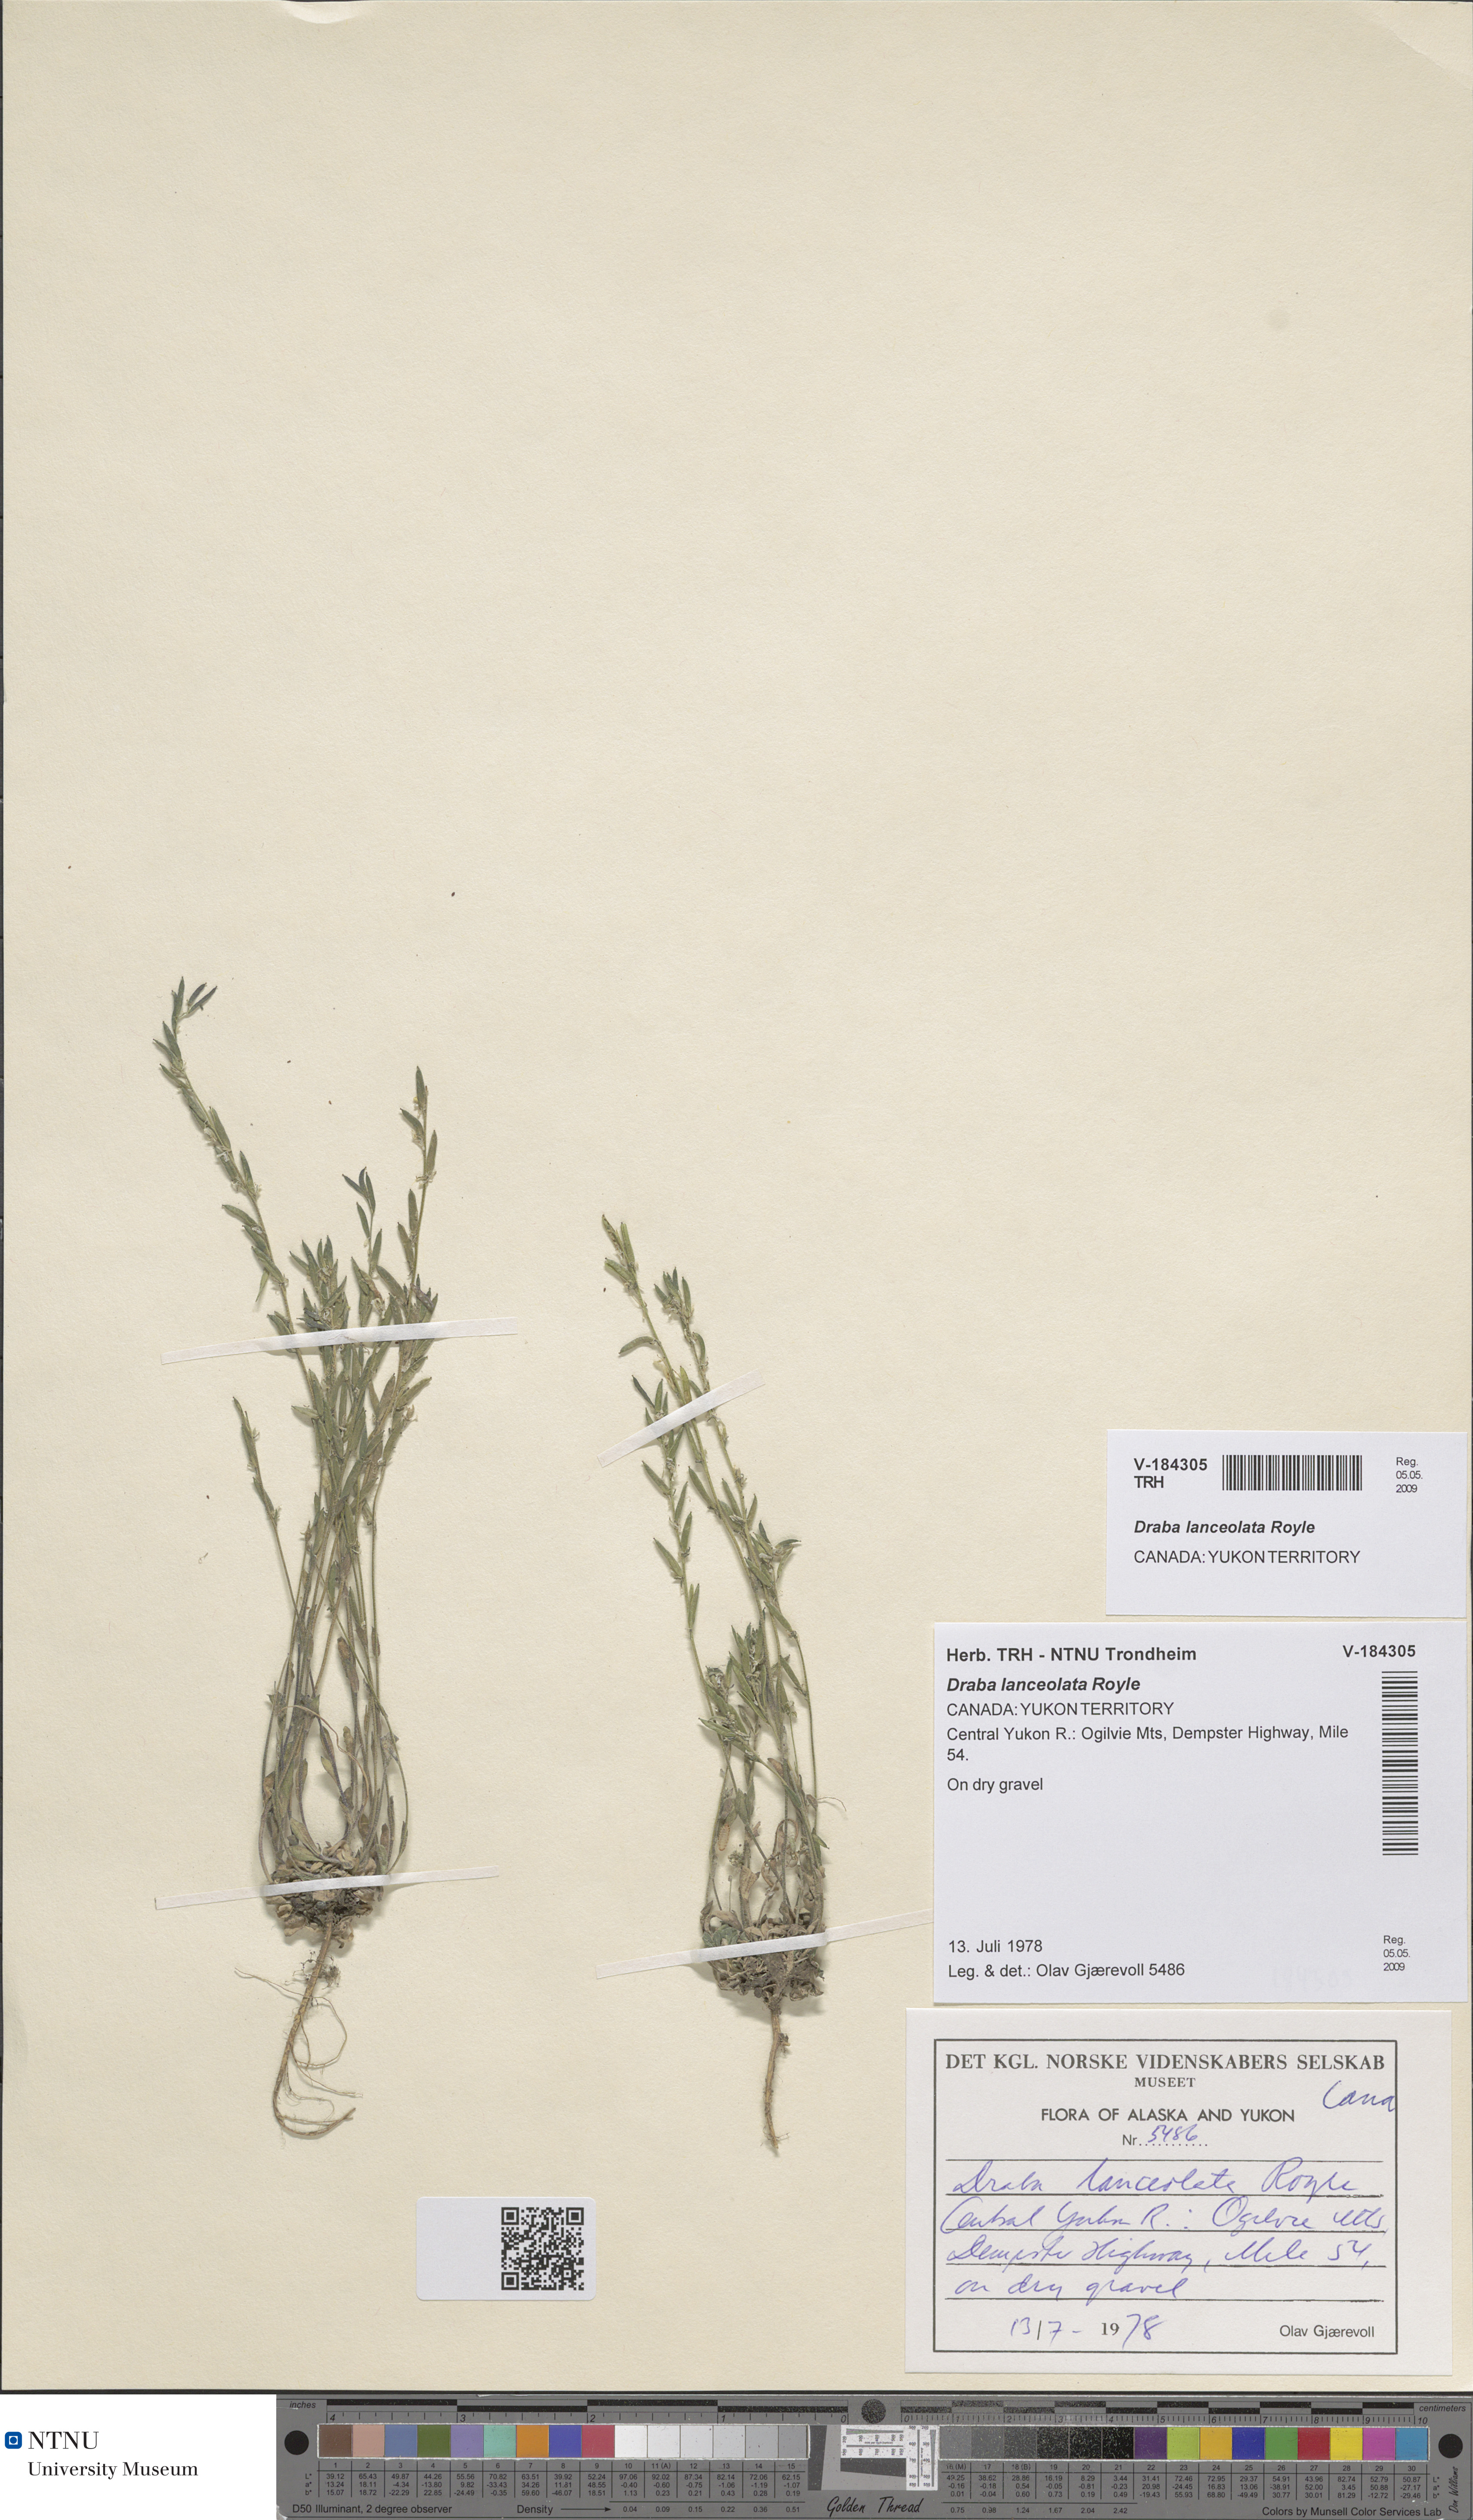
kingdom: Plantae
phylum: Tracheophyta
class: Magnoliopsida
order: Brassicales
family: Brassicaceae
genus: Draba
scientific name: Draba lanceolata
